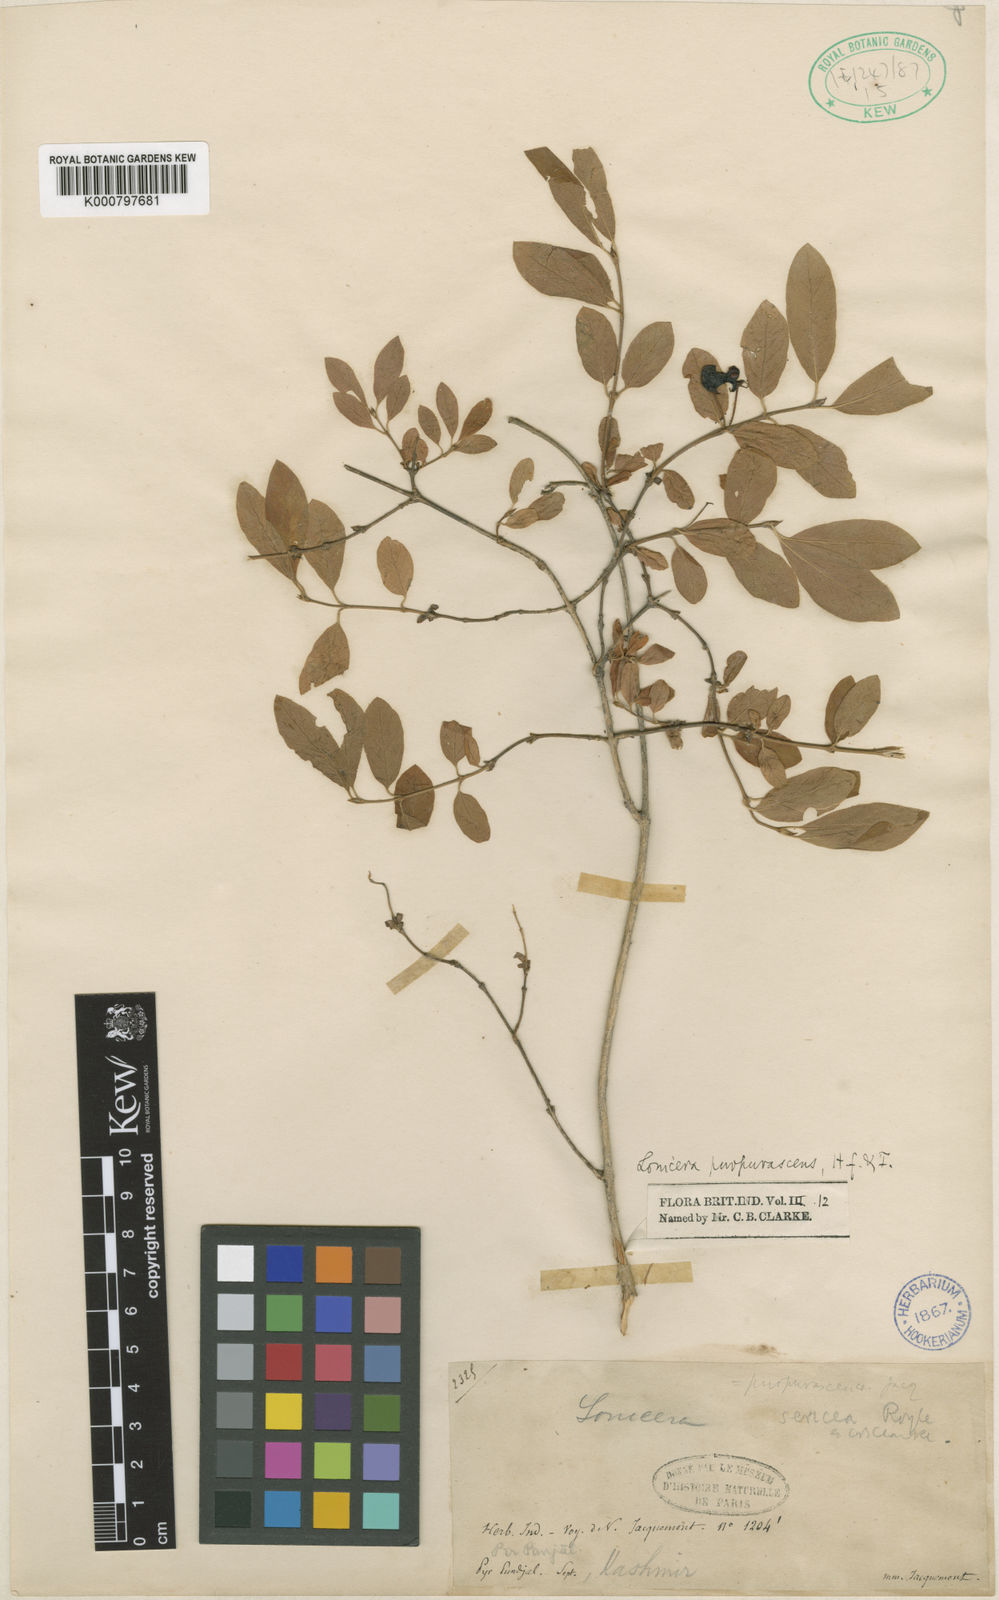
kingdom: Plantae
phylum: Tracheophyta
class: Magnoliopsida
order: Dipsacales
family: Caprifoliaceae
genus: Lonicera
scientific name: Lonicera
